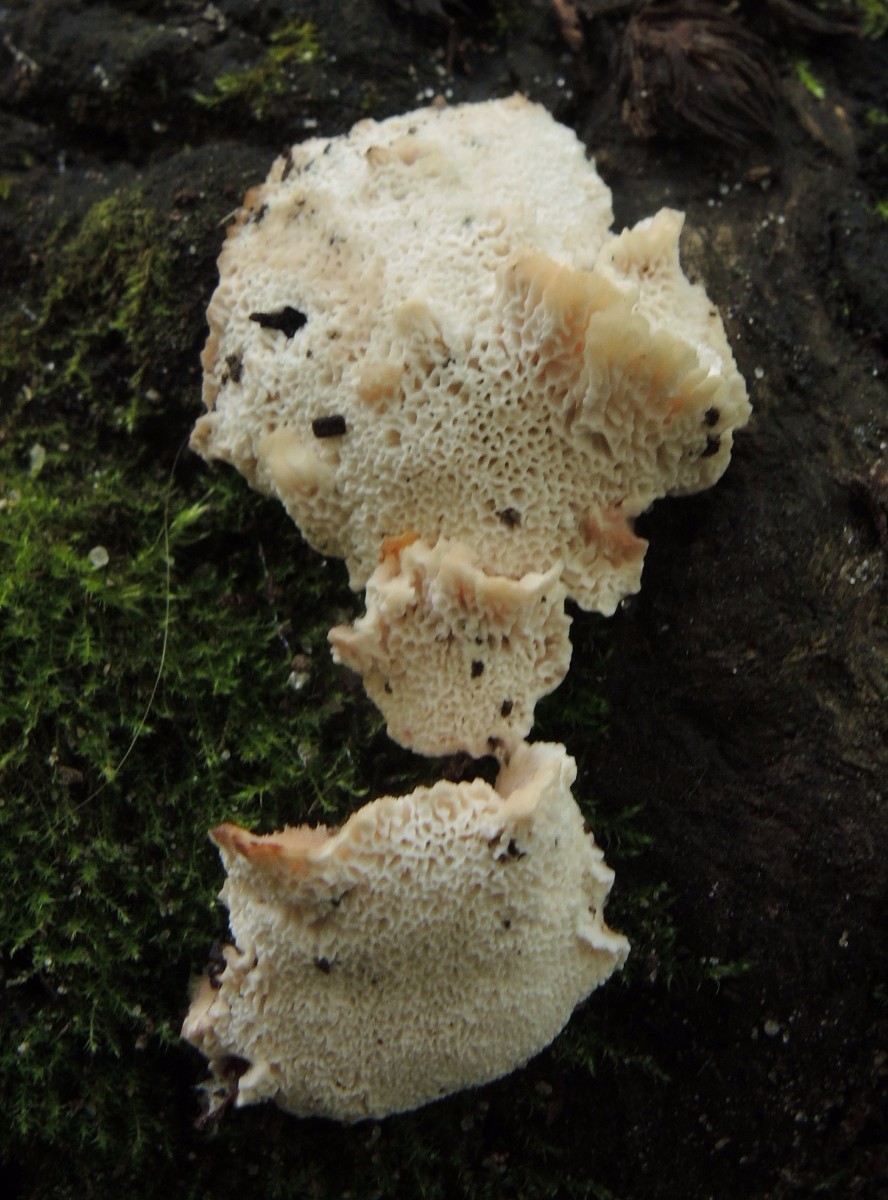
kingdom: Fungi
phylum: Basidiomycota
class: Agaricomycetes
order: Polyporales
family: Podoscyphaceae
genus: Abortiporus
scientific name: Abortiporus biennis
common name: rødmende pjalteporesvamp
